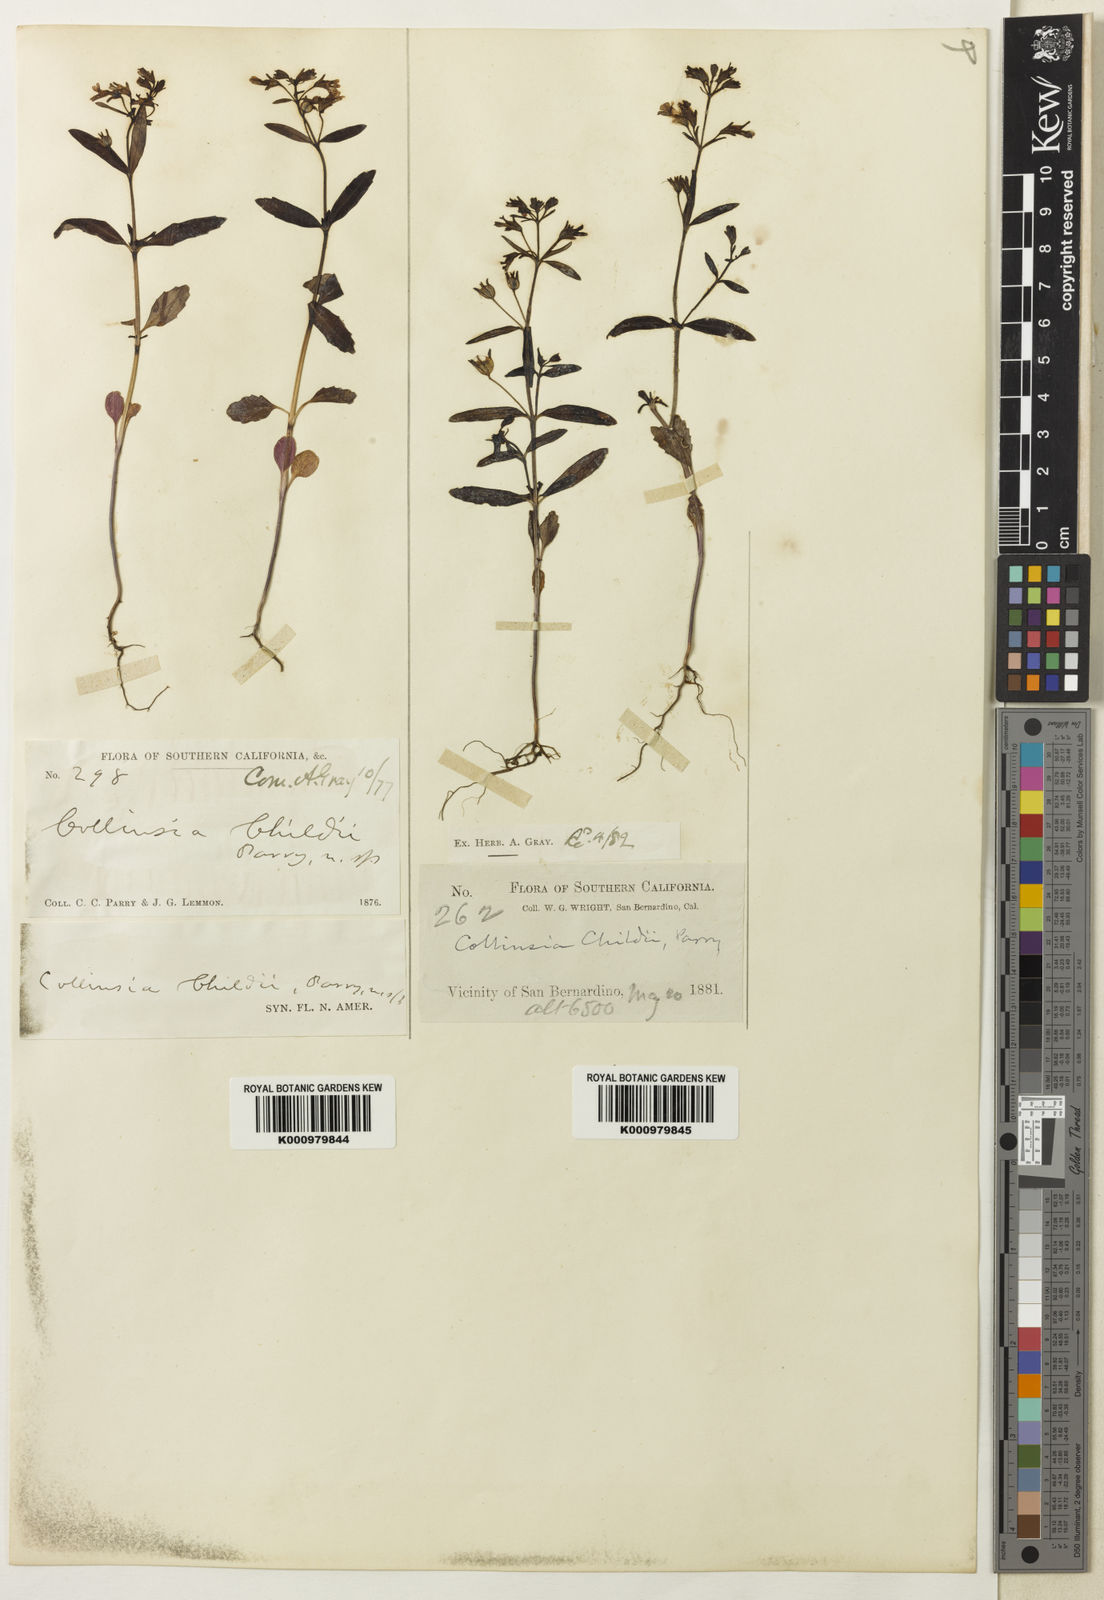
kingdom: Plantae
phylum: Tracheophyta
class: Magnoliopsida
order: Lamiales
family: Plantaginaceae
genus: Collinsia
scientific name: Collinsia childii
